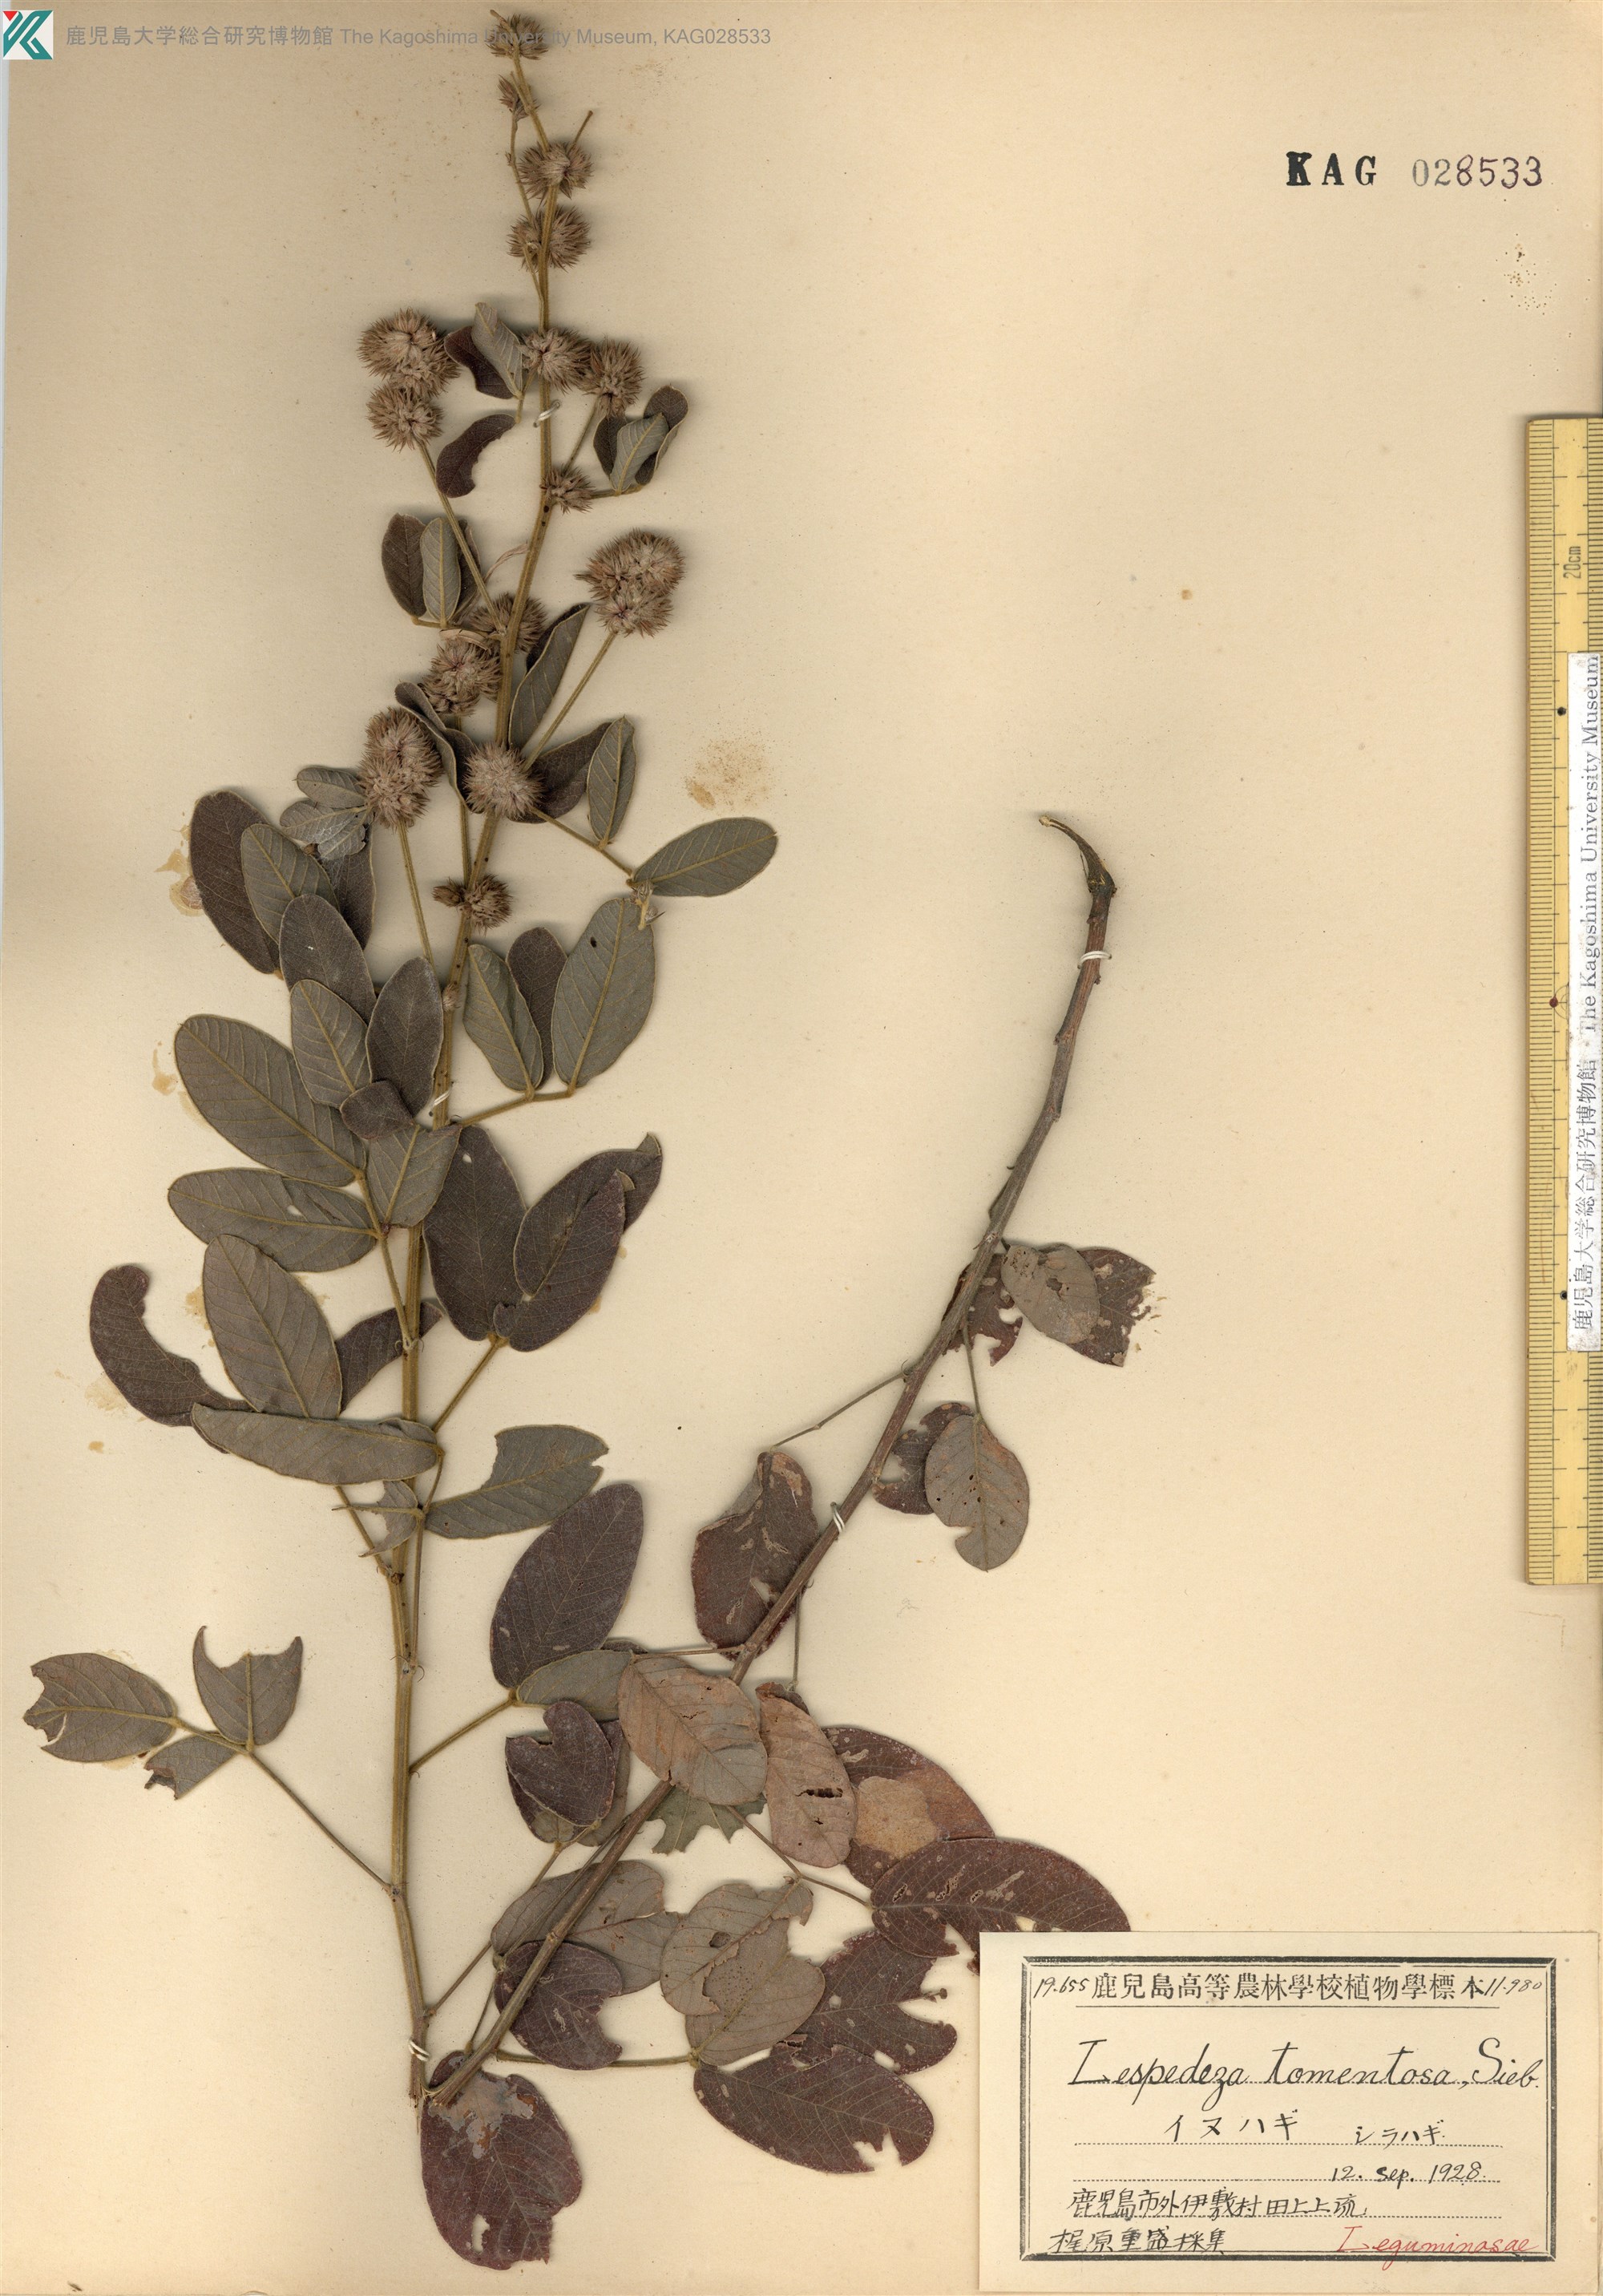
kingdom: Plantae
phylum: Tracheophyta
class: Magnoliopsida
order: Fabales
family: Fabaceae
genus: Lespedeza
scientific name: Lespedeza tomentosa
